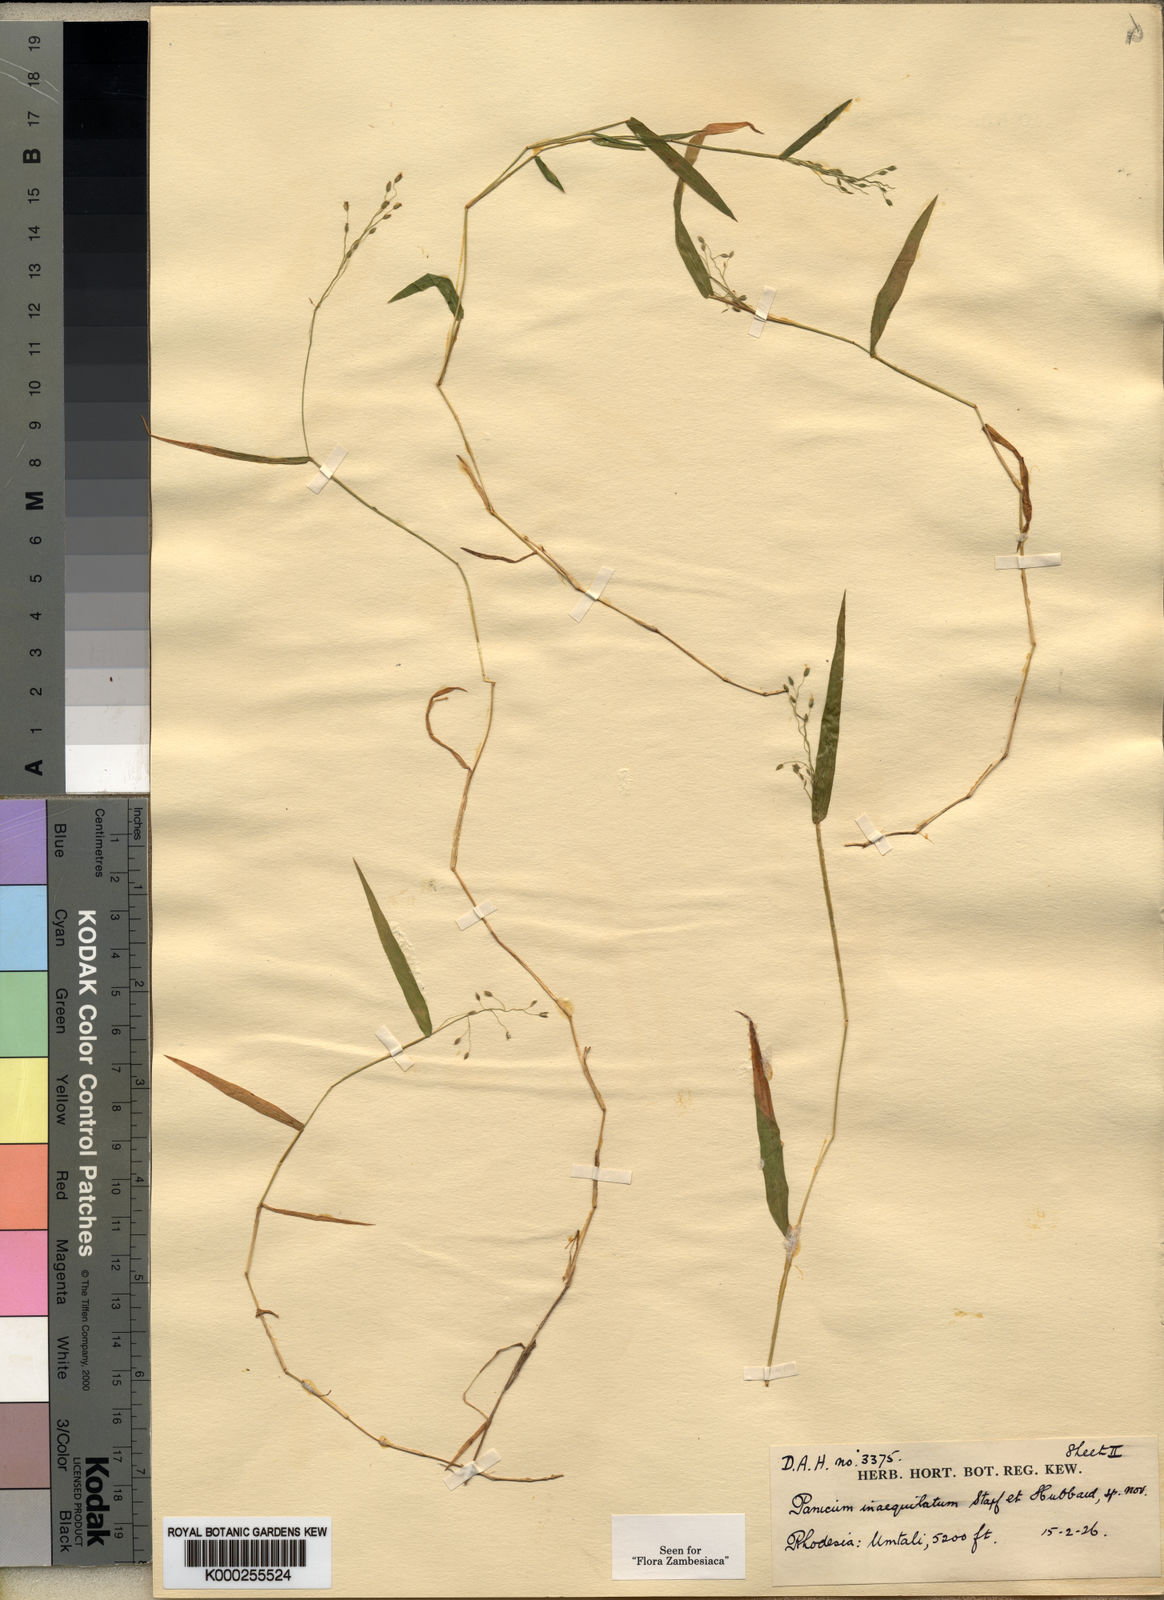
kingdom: Plantae
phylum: Tracheophyta
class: Liliopsida
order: Poales
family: Poaceae
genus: Panicum
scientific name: Panicum inaequilatum
